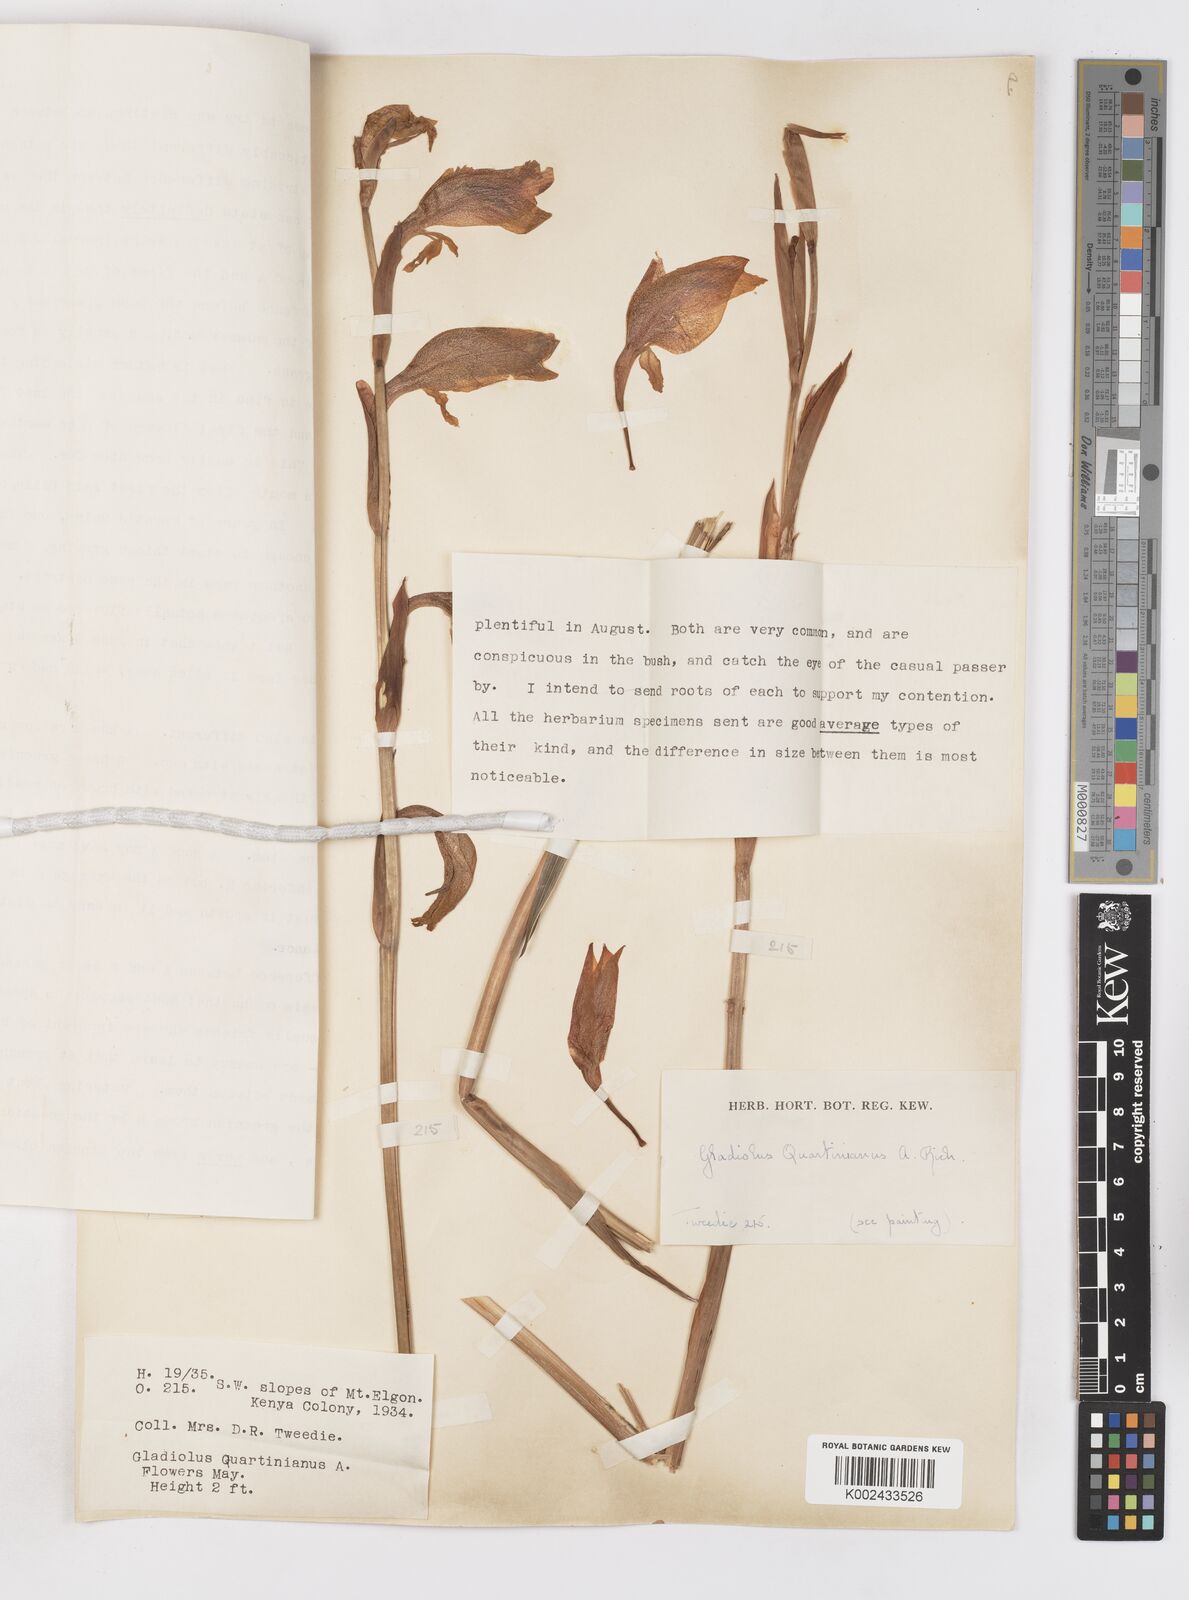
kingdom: Plantae
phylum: Tracheophyta
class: Liliopsida
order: Asparagales
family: Iridaceae
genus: Gladiolus
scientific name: Gladiolus dalenii
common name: Cornflag
